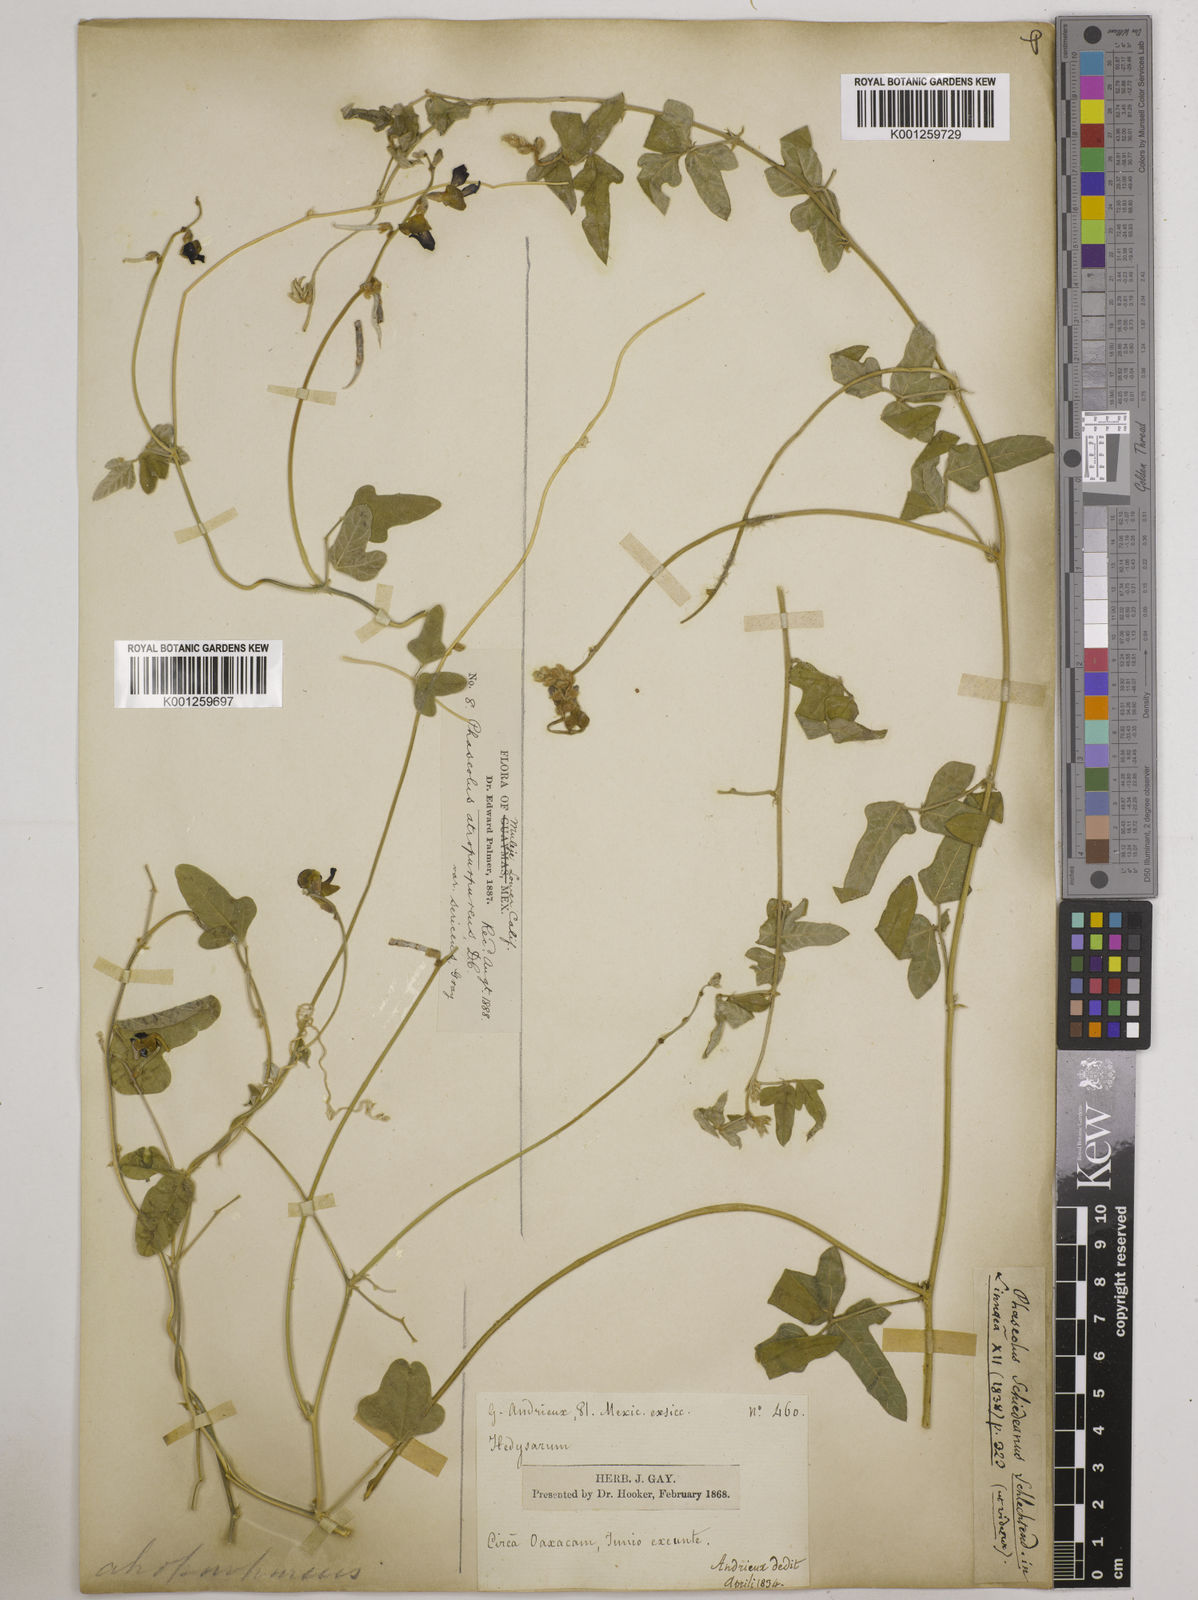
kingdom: Plantae
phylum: Tracheophyta
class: Magnoliopsida
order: Fabales
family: Fabaceae
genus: Macroptilium
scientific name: Macroptilium atropurpureum
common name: Purple bushbean
